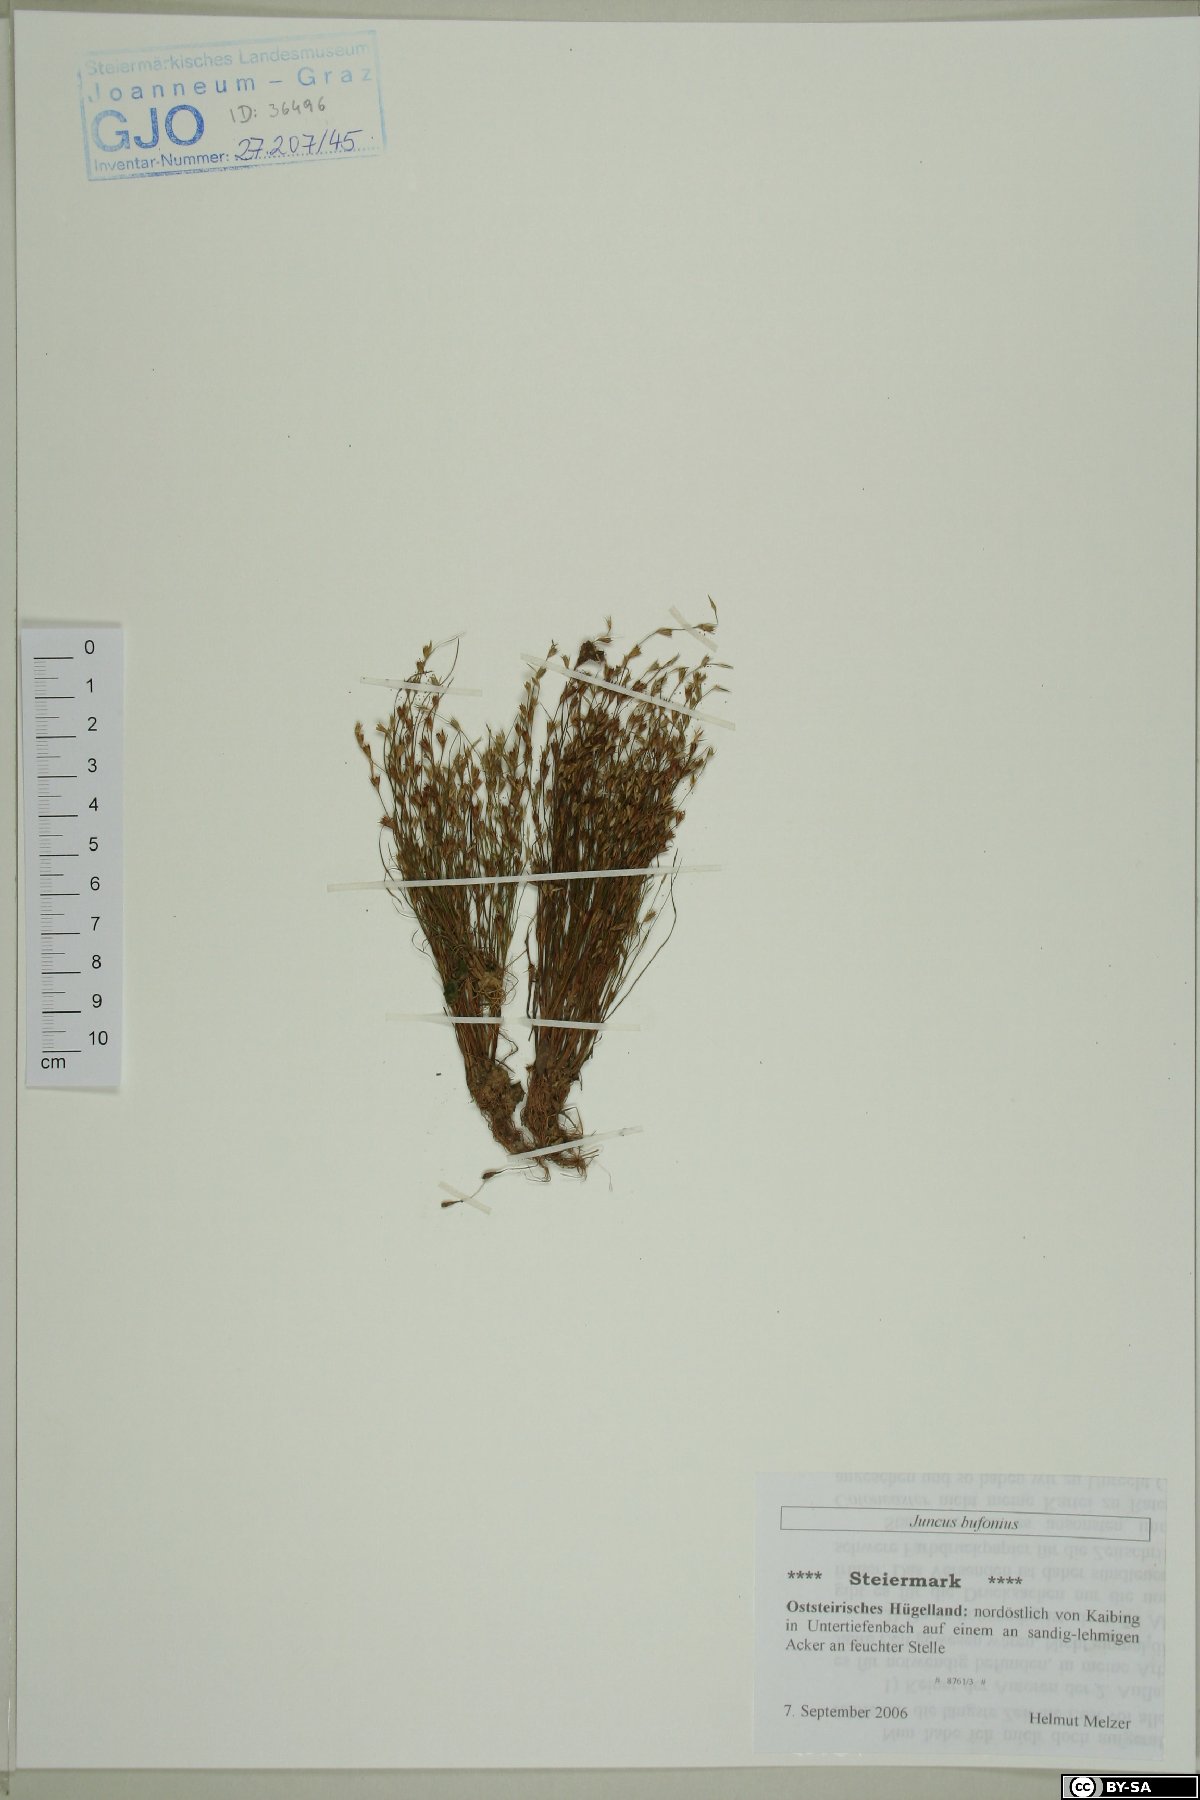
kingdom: Plantae
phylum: Tracheophyta
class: Liliopsida
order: Poales
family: Juncaceae
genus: Juncus
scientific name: Juncus bufonius
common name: Toad rush
